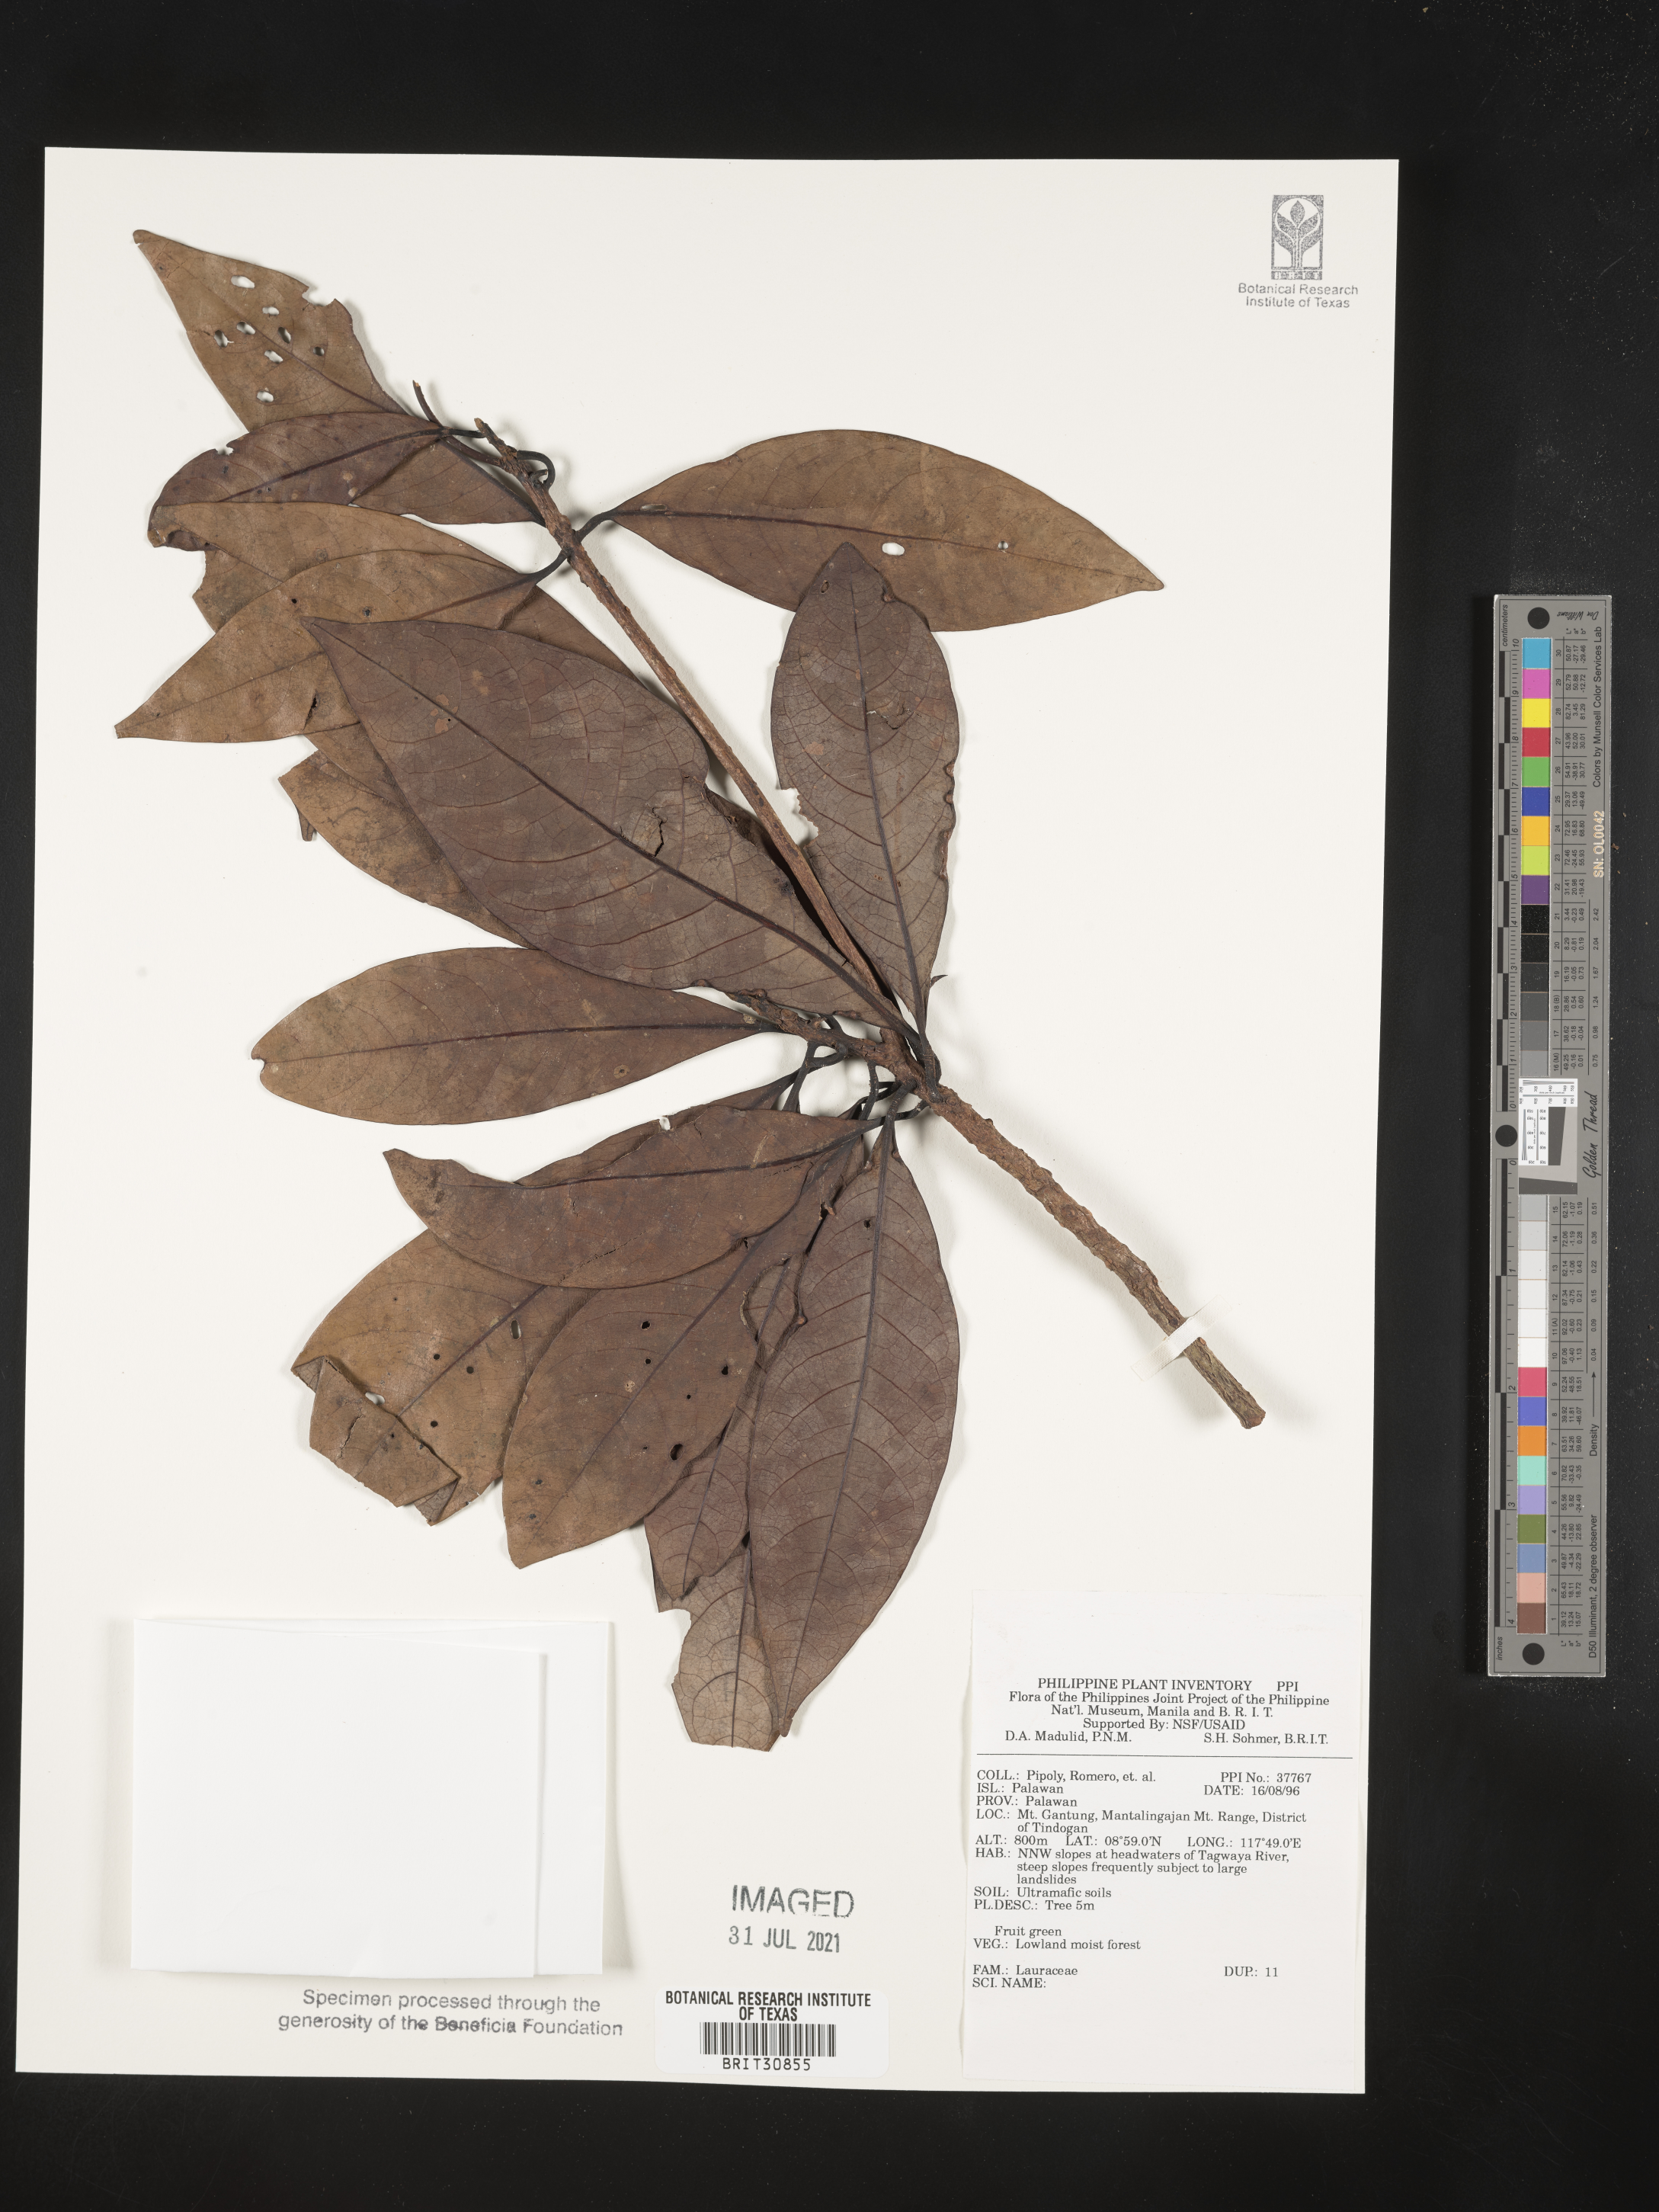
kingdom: Plantae
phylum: Tracheophyta
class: Magnoliopsida
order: Laurales
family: Lauraceae
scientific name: Lauraceae
